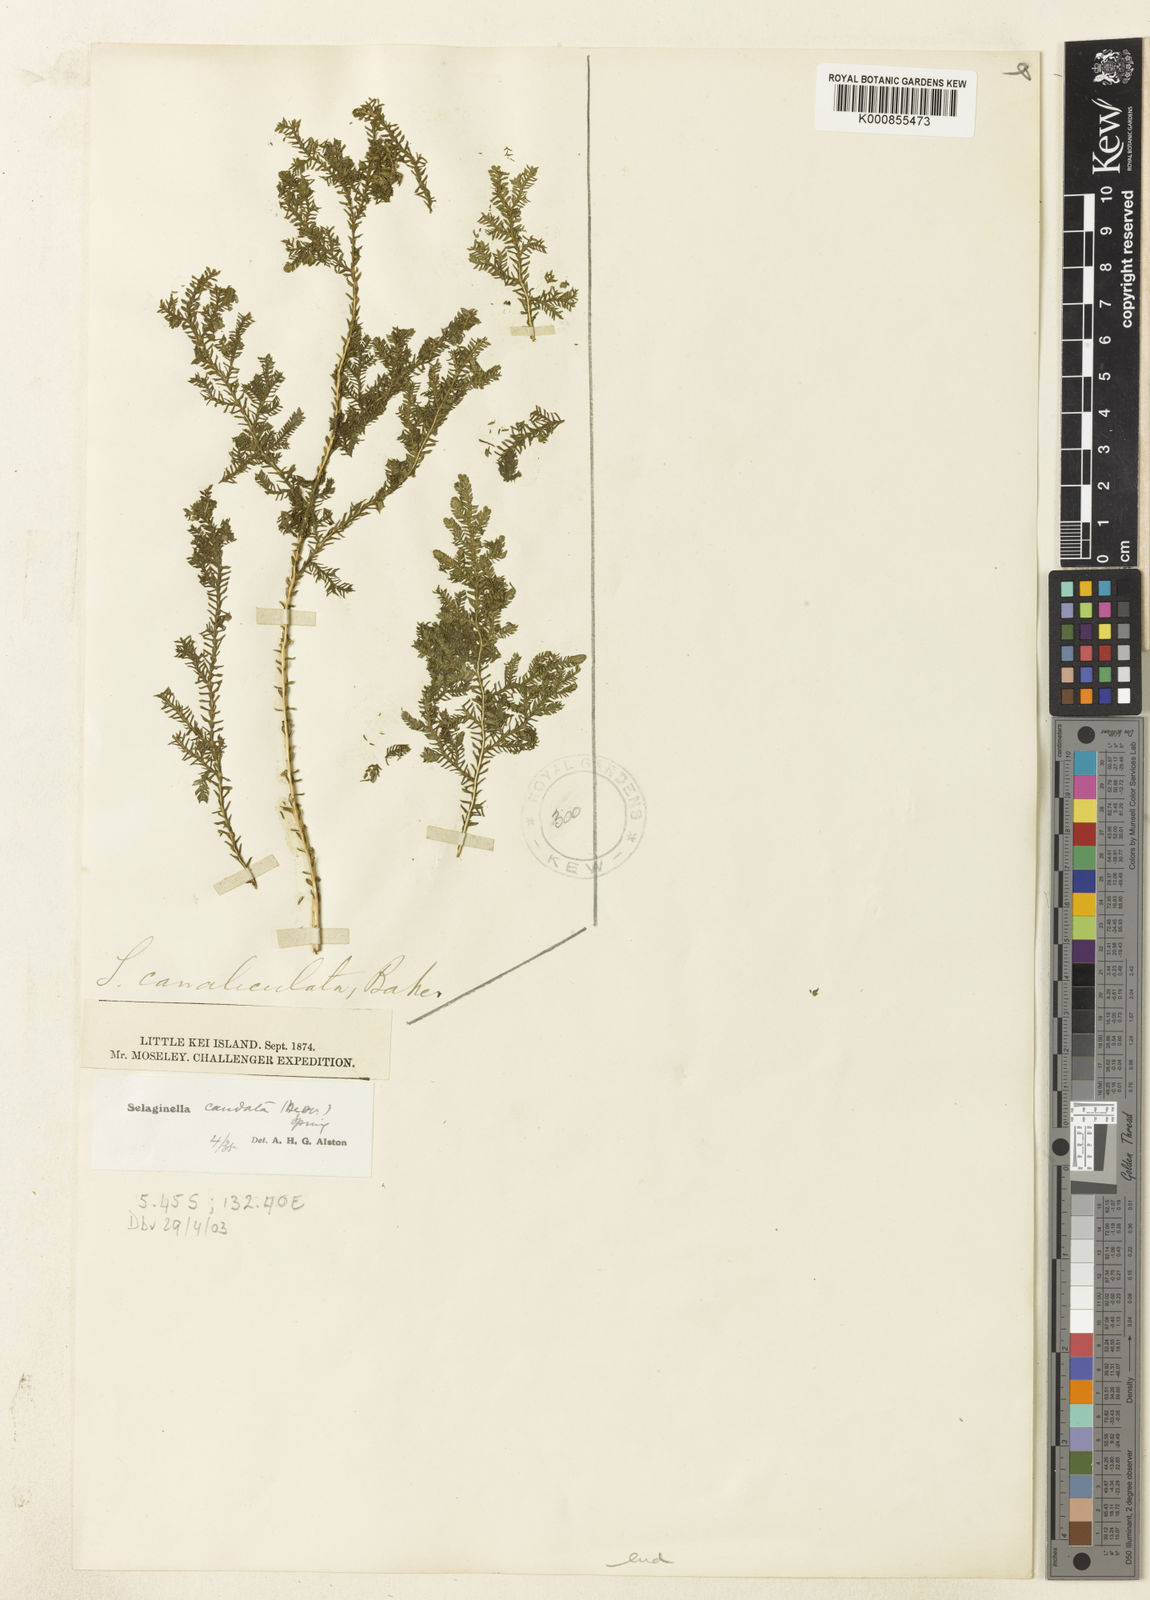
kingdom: Plantae
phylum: Tracheophyta
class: Lycopodiopsida
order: Selaginellales
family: Selaginellaceae
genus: Selaginella
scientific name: Selaginella caudata
